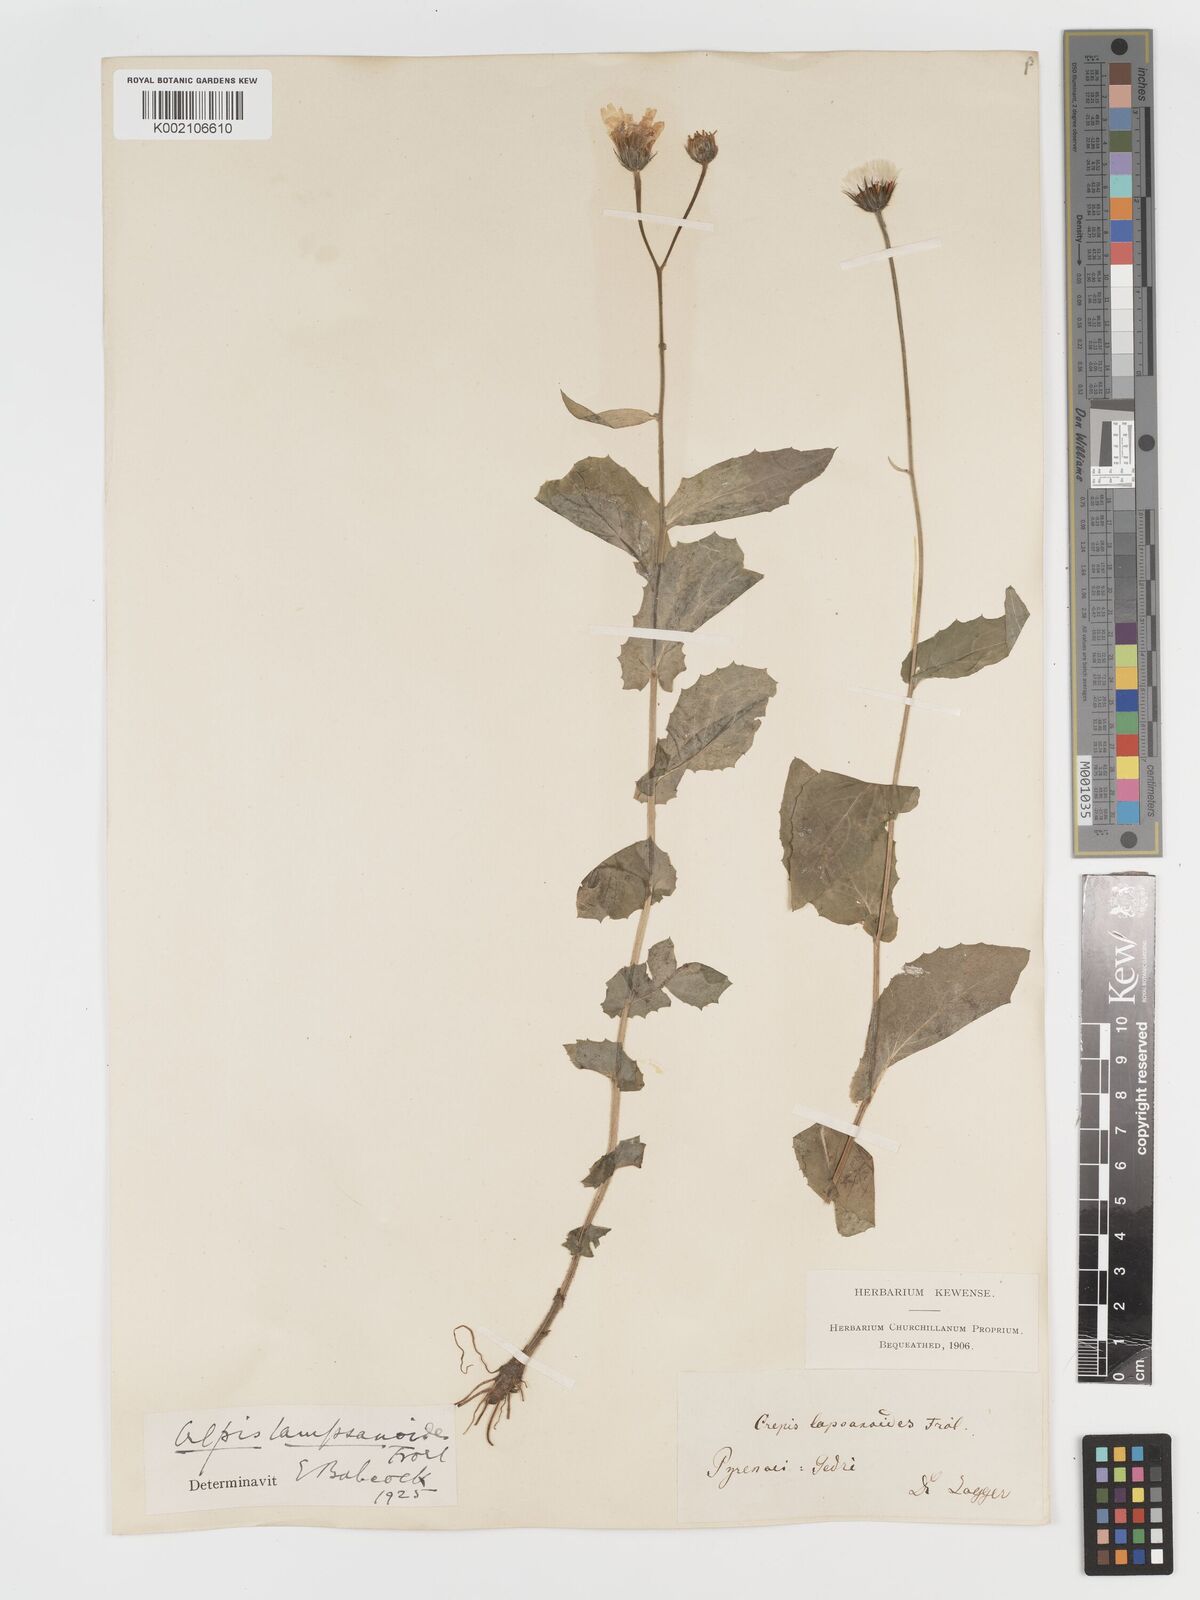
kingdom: Plantae
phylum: Tracheophyta
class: Magnoliopsida
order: Asterales
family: Asteraceae
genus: Crepis
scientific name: Crepis lampsanoides
